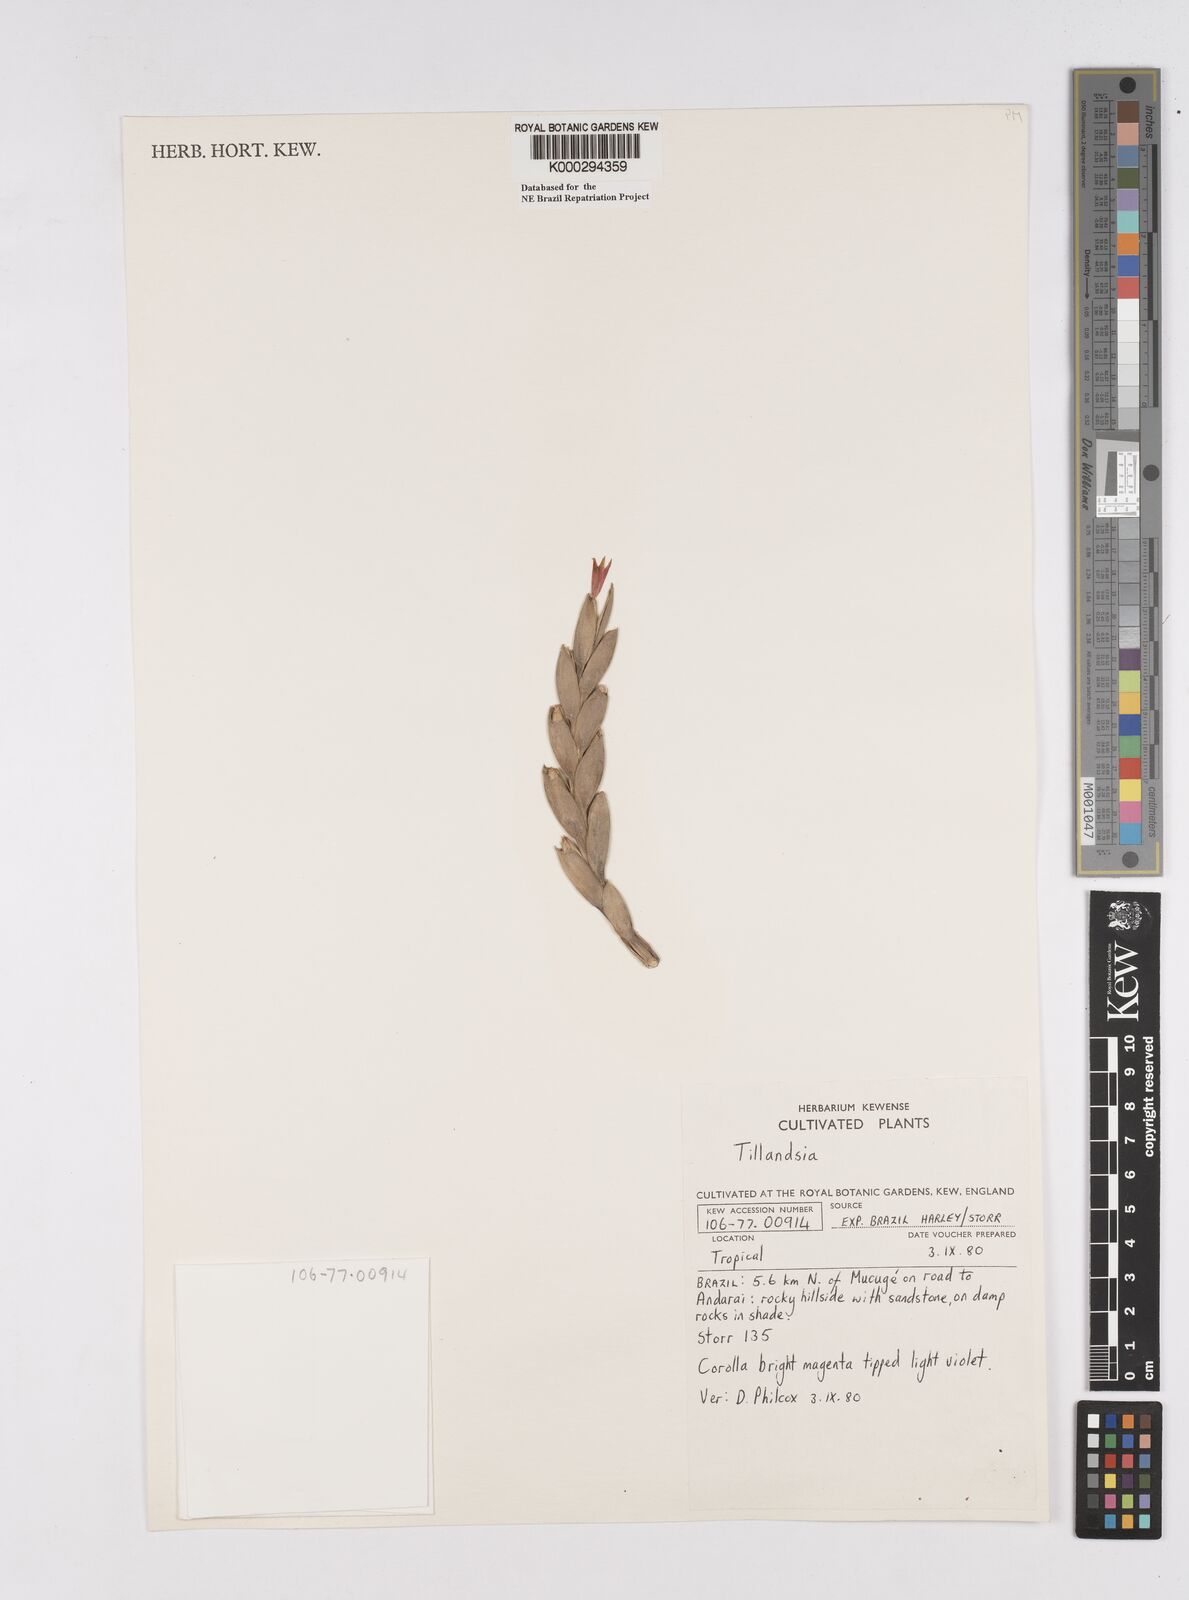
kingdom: Plantae
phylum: Tracheophyta
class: Liliopsida
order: Poales
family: Bromeliaceae
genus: Tillandsia
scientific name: Tillandsia
